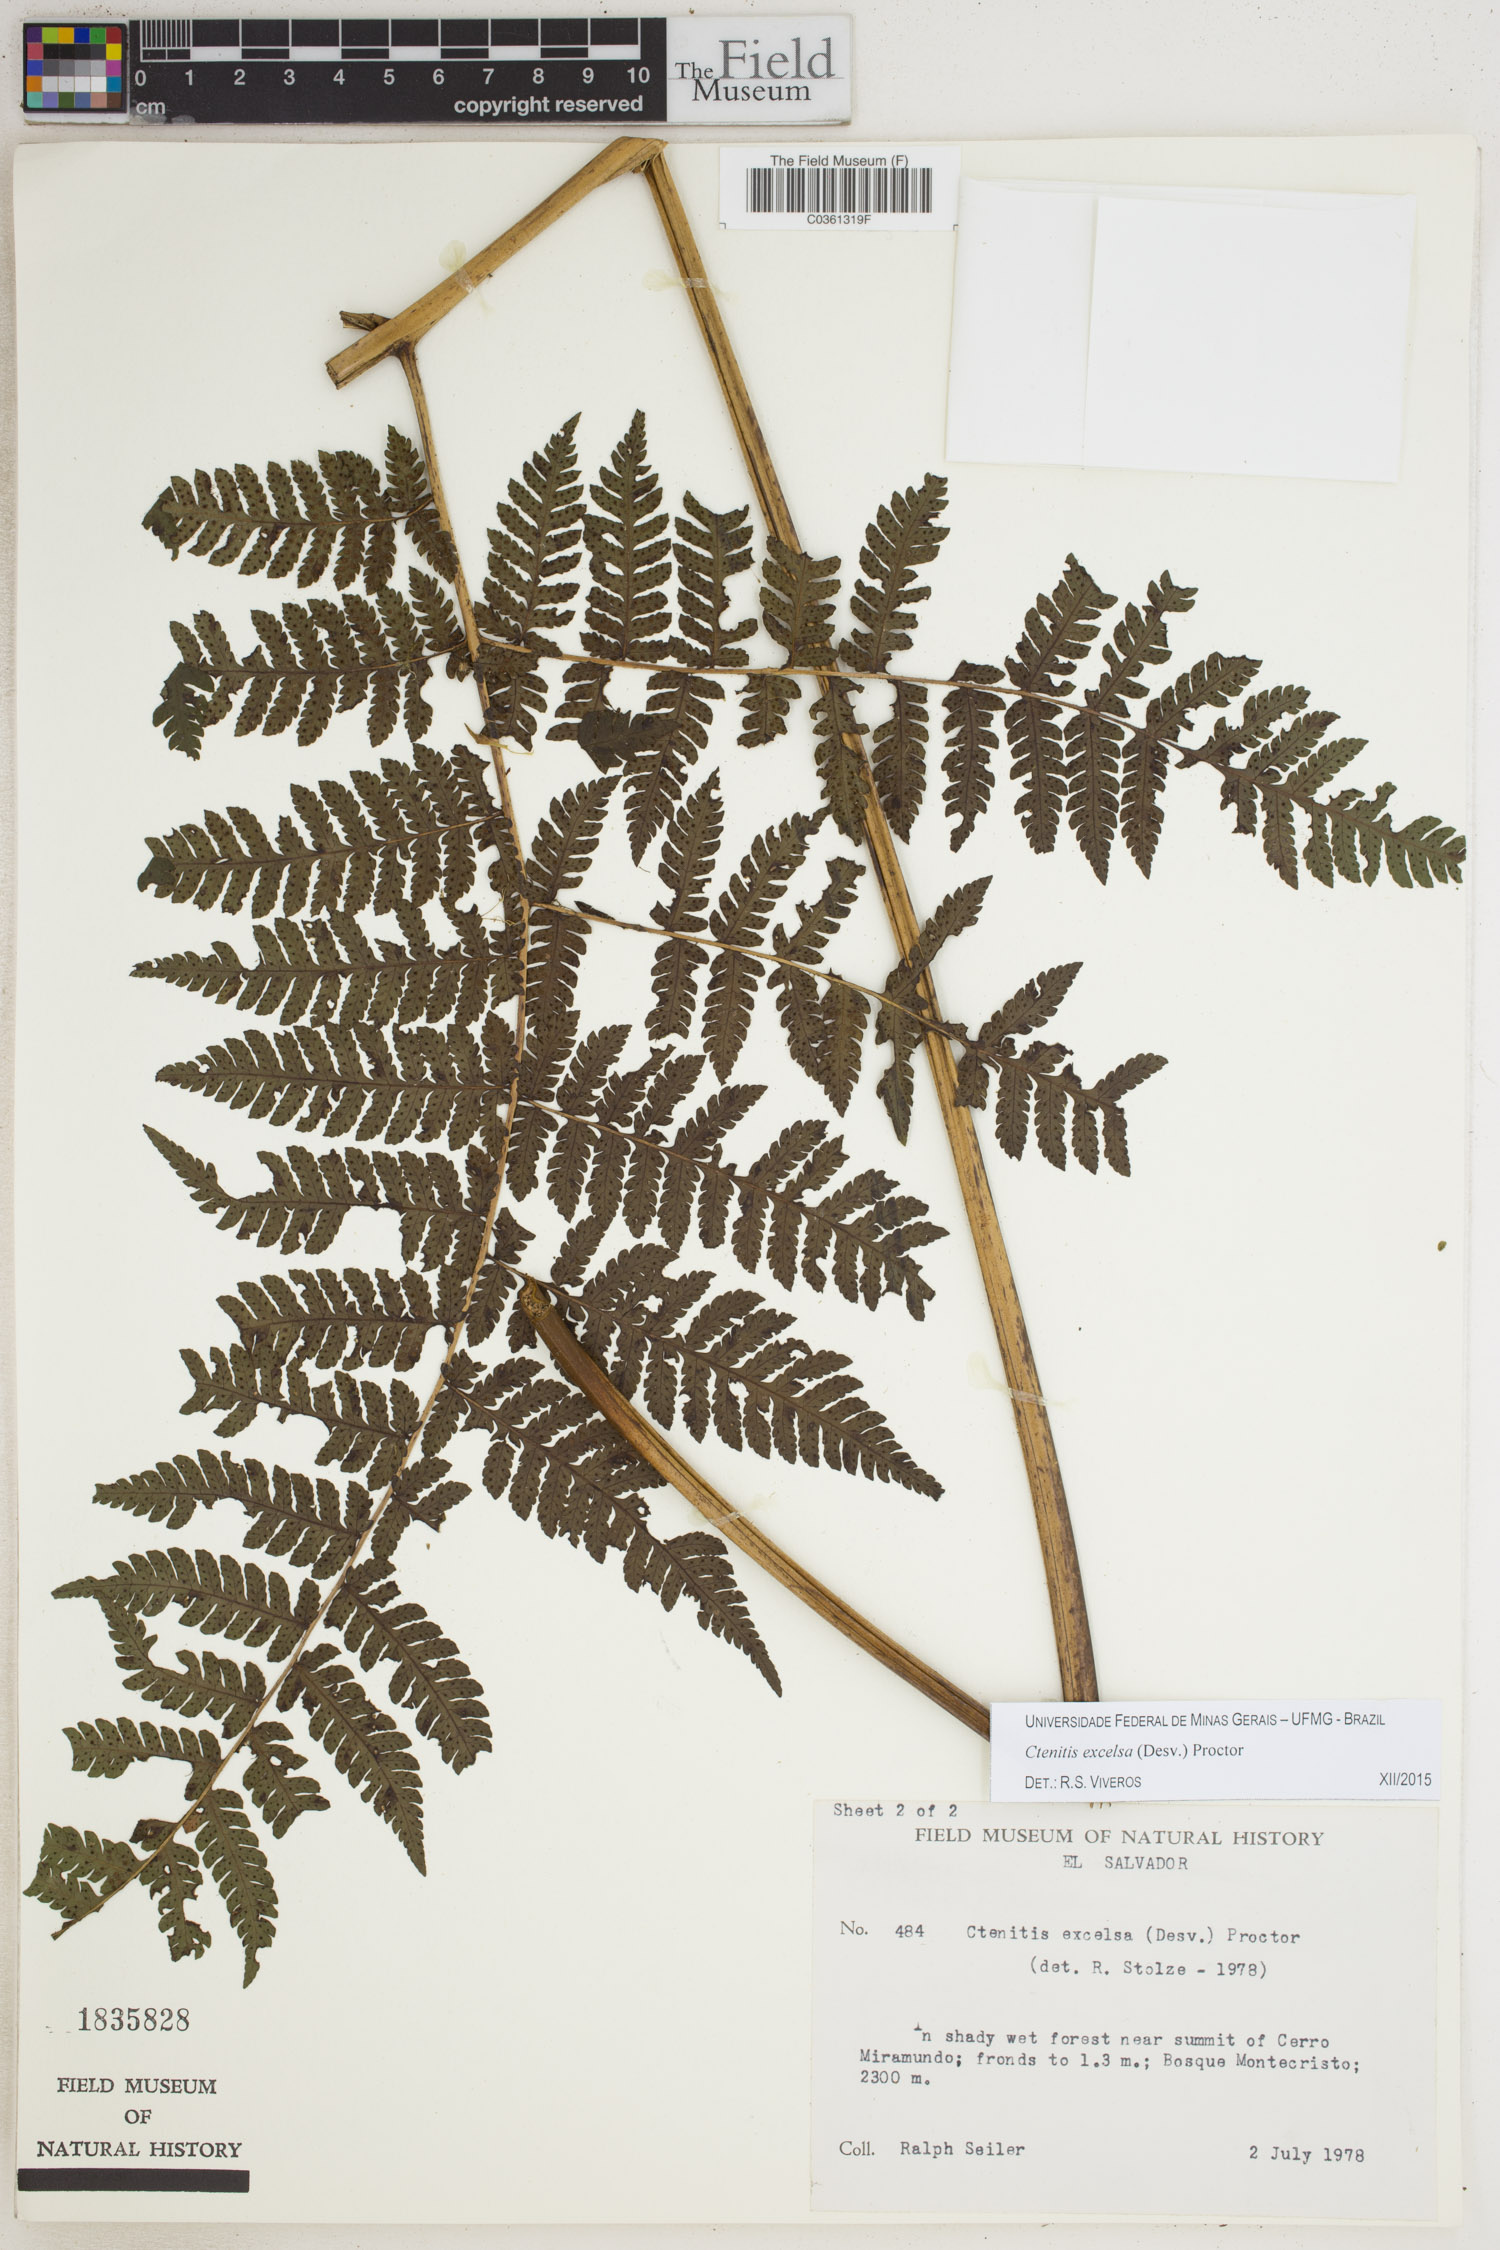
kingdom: Plantae
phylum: Tracheophyta
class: Polypodiopsida
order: Polypodiales
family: Dryopteridaceae
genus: Ctenitis
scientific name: Ctenitis excelsa
